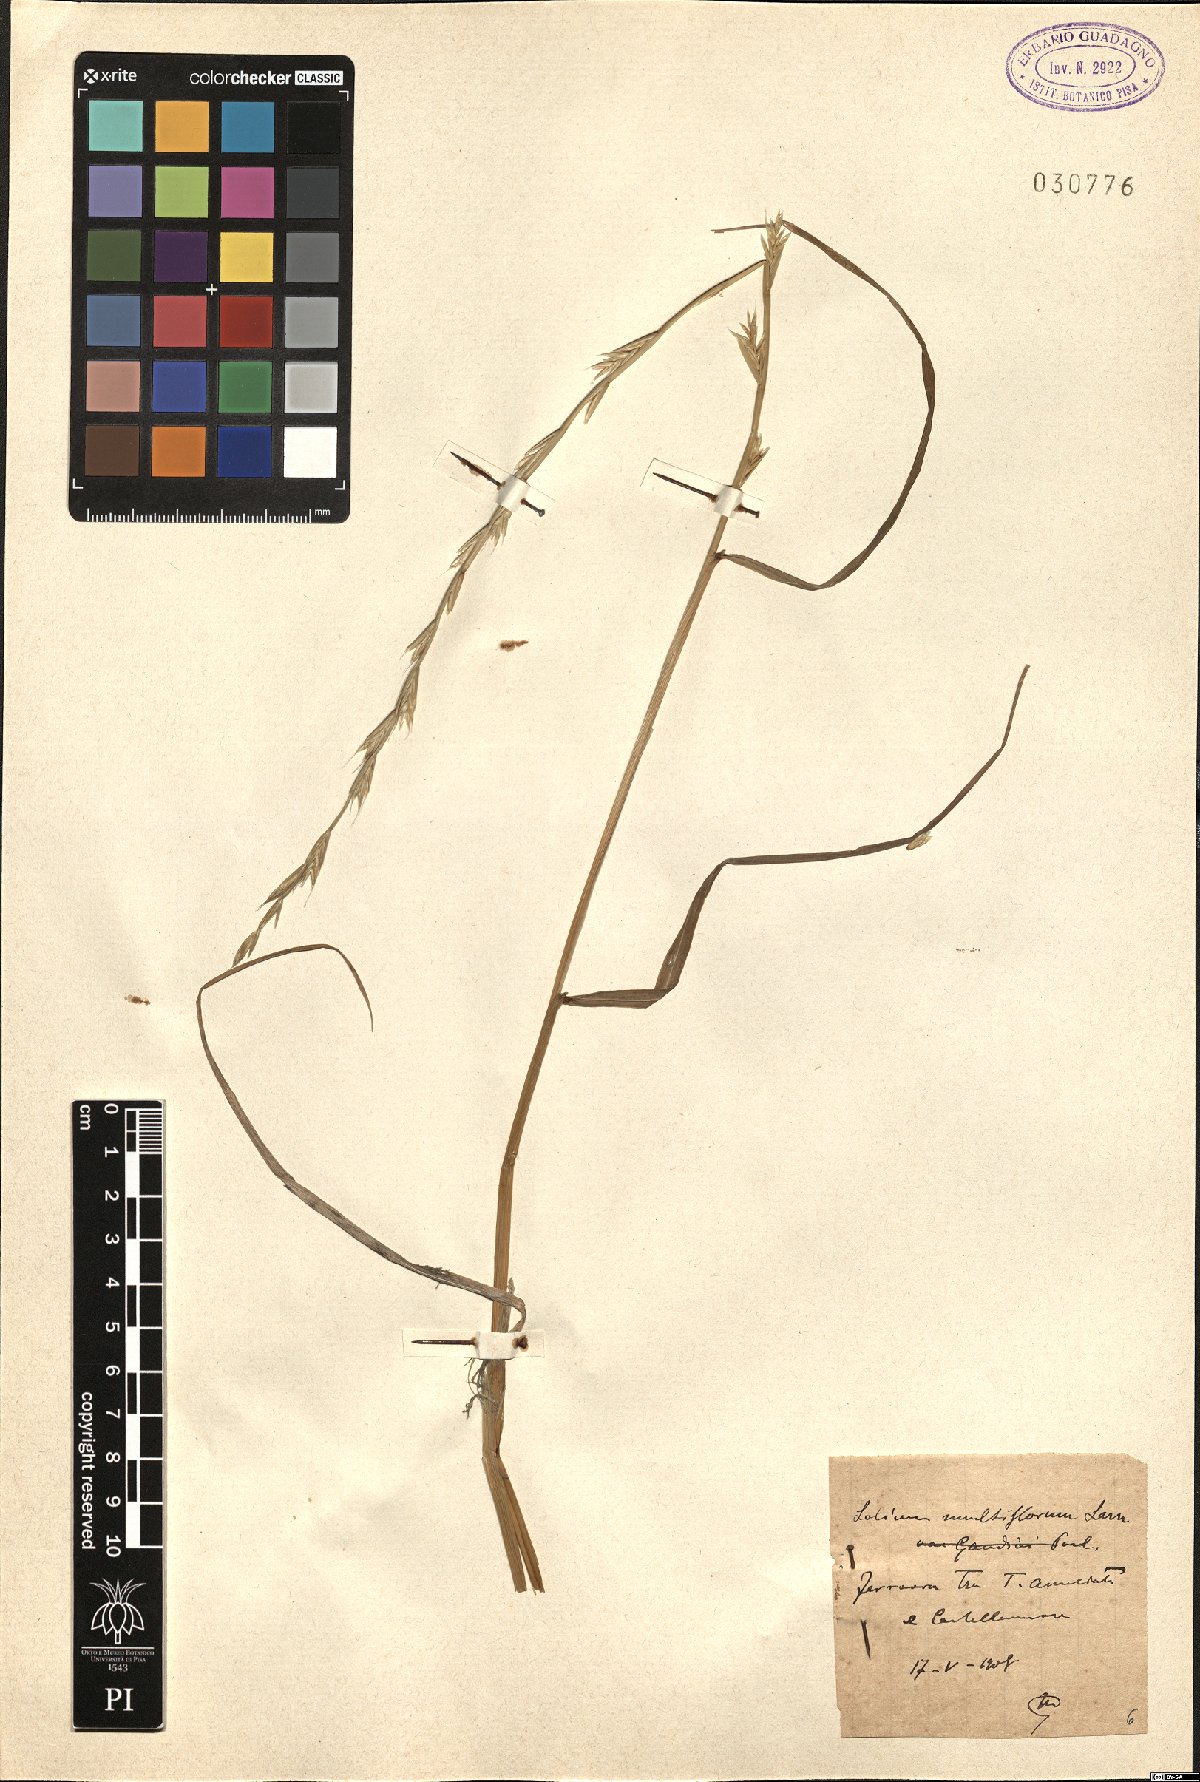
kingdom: Plantae
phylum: Tracheophyta
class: Liliopsida
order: Poales
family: Poaceae
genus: Lolium
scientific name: Lolium multiflorum
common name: Annual ryegrass
